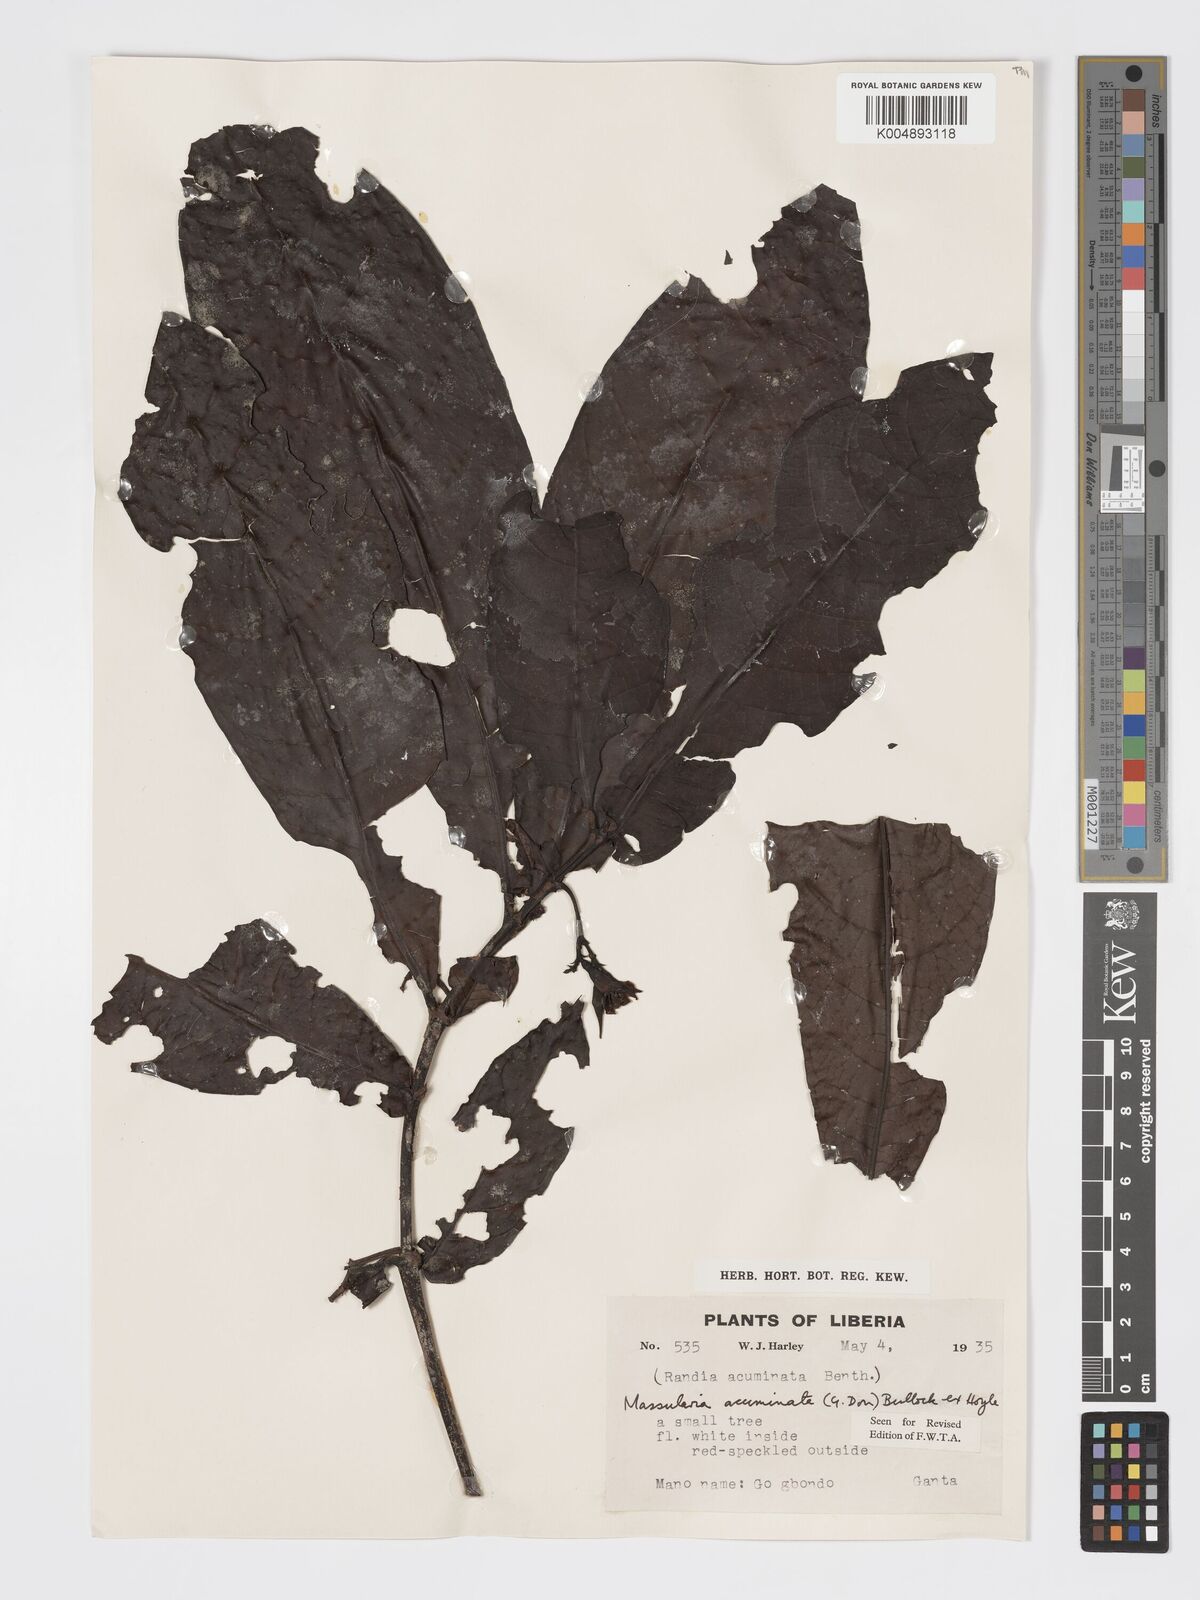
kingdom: Plantae
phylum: Tracheophyta
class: Magnoliopsida
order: Gentianales
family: Rubiaceae
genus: Massularia
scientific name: Massularia acuminata
